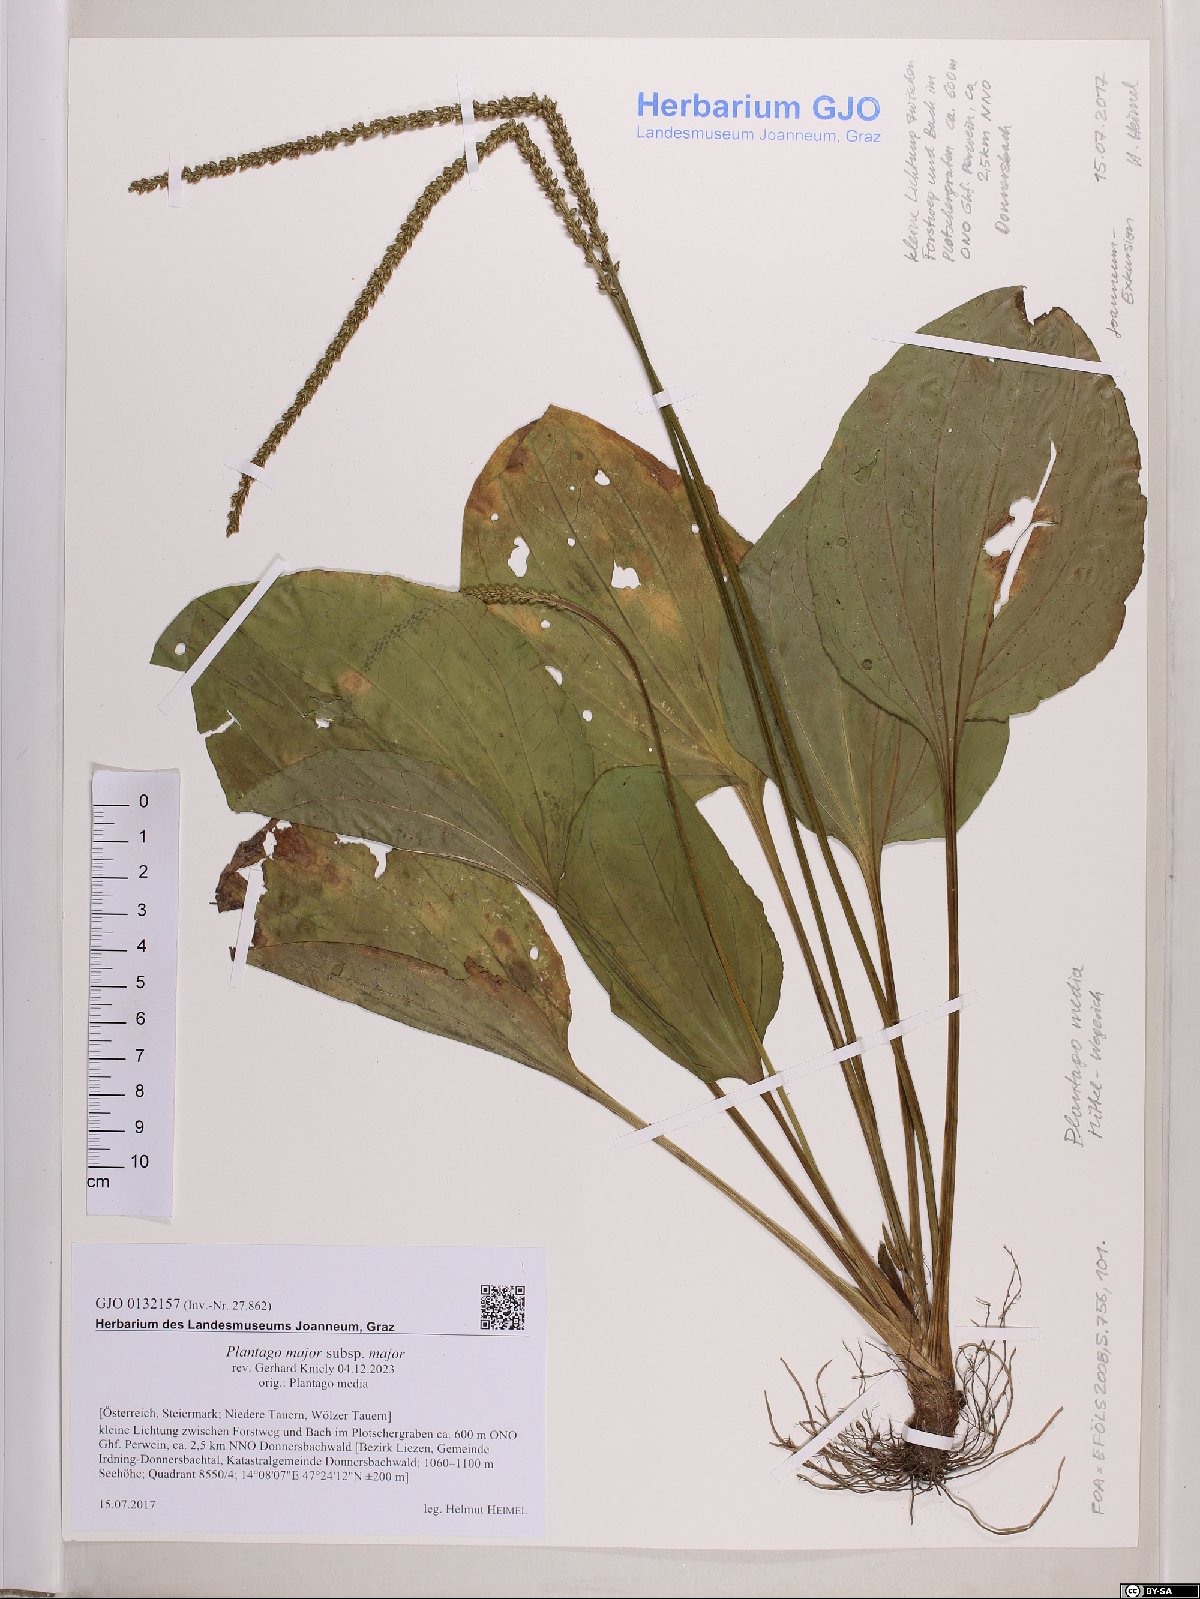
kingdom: Plantae
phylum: Tracheophyta
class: Magnoliopsida
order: Lamiales
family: Plantaginaceae
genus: Plantago
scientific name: Plantago major
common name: Common plantain
